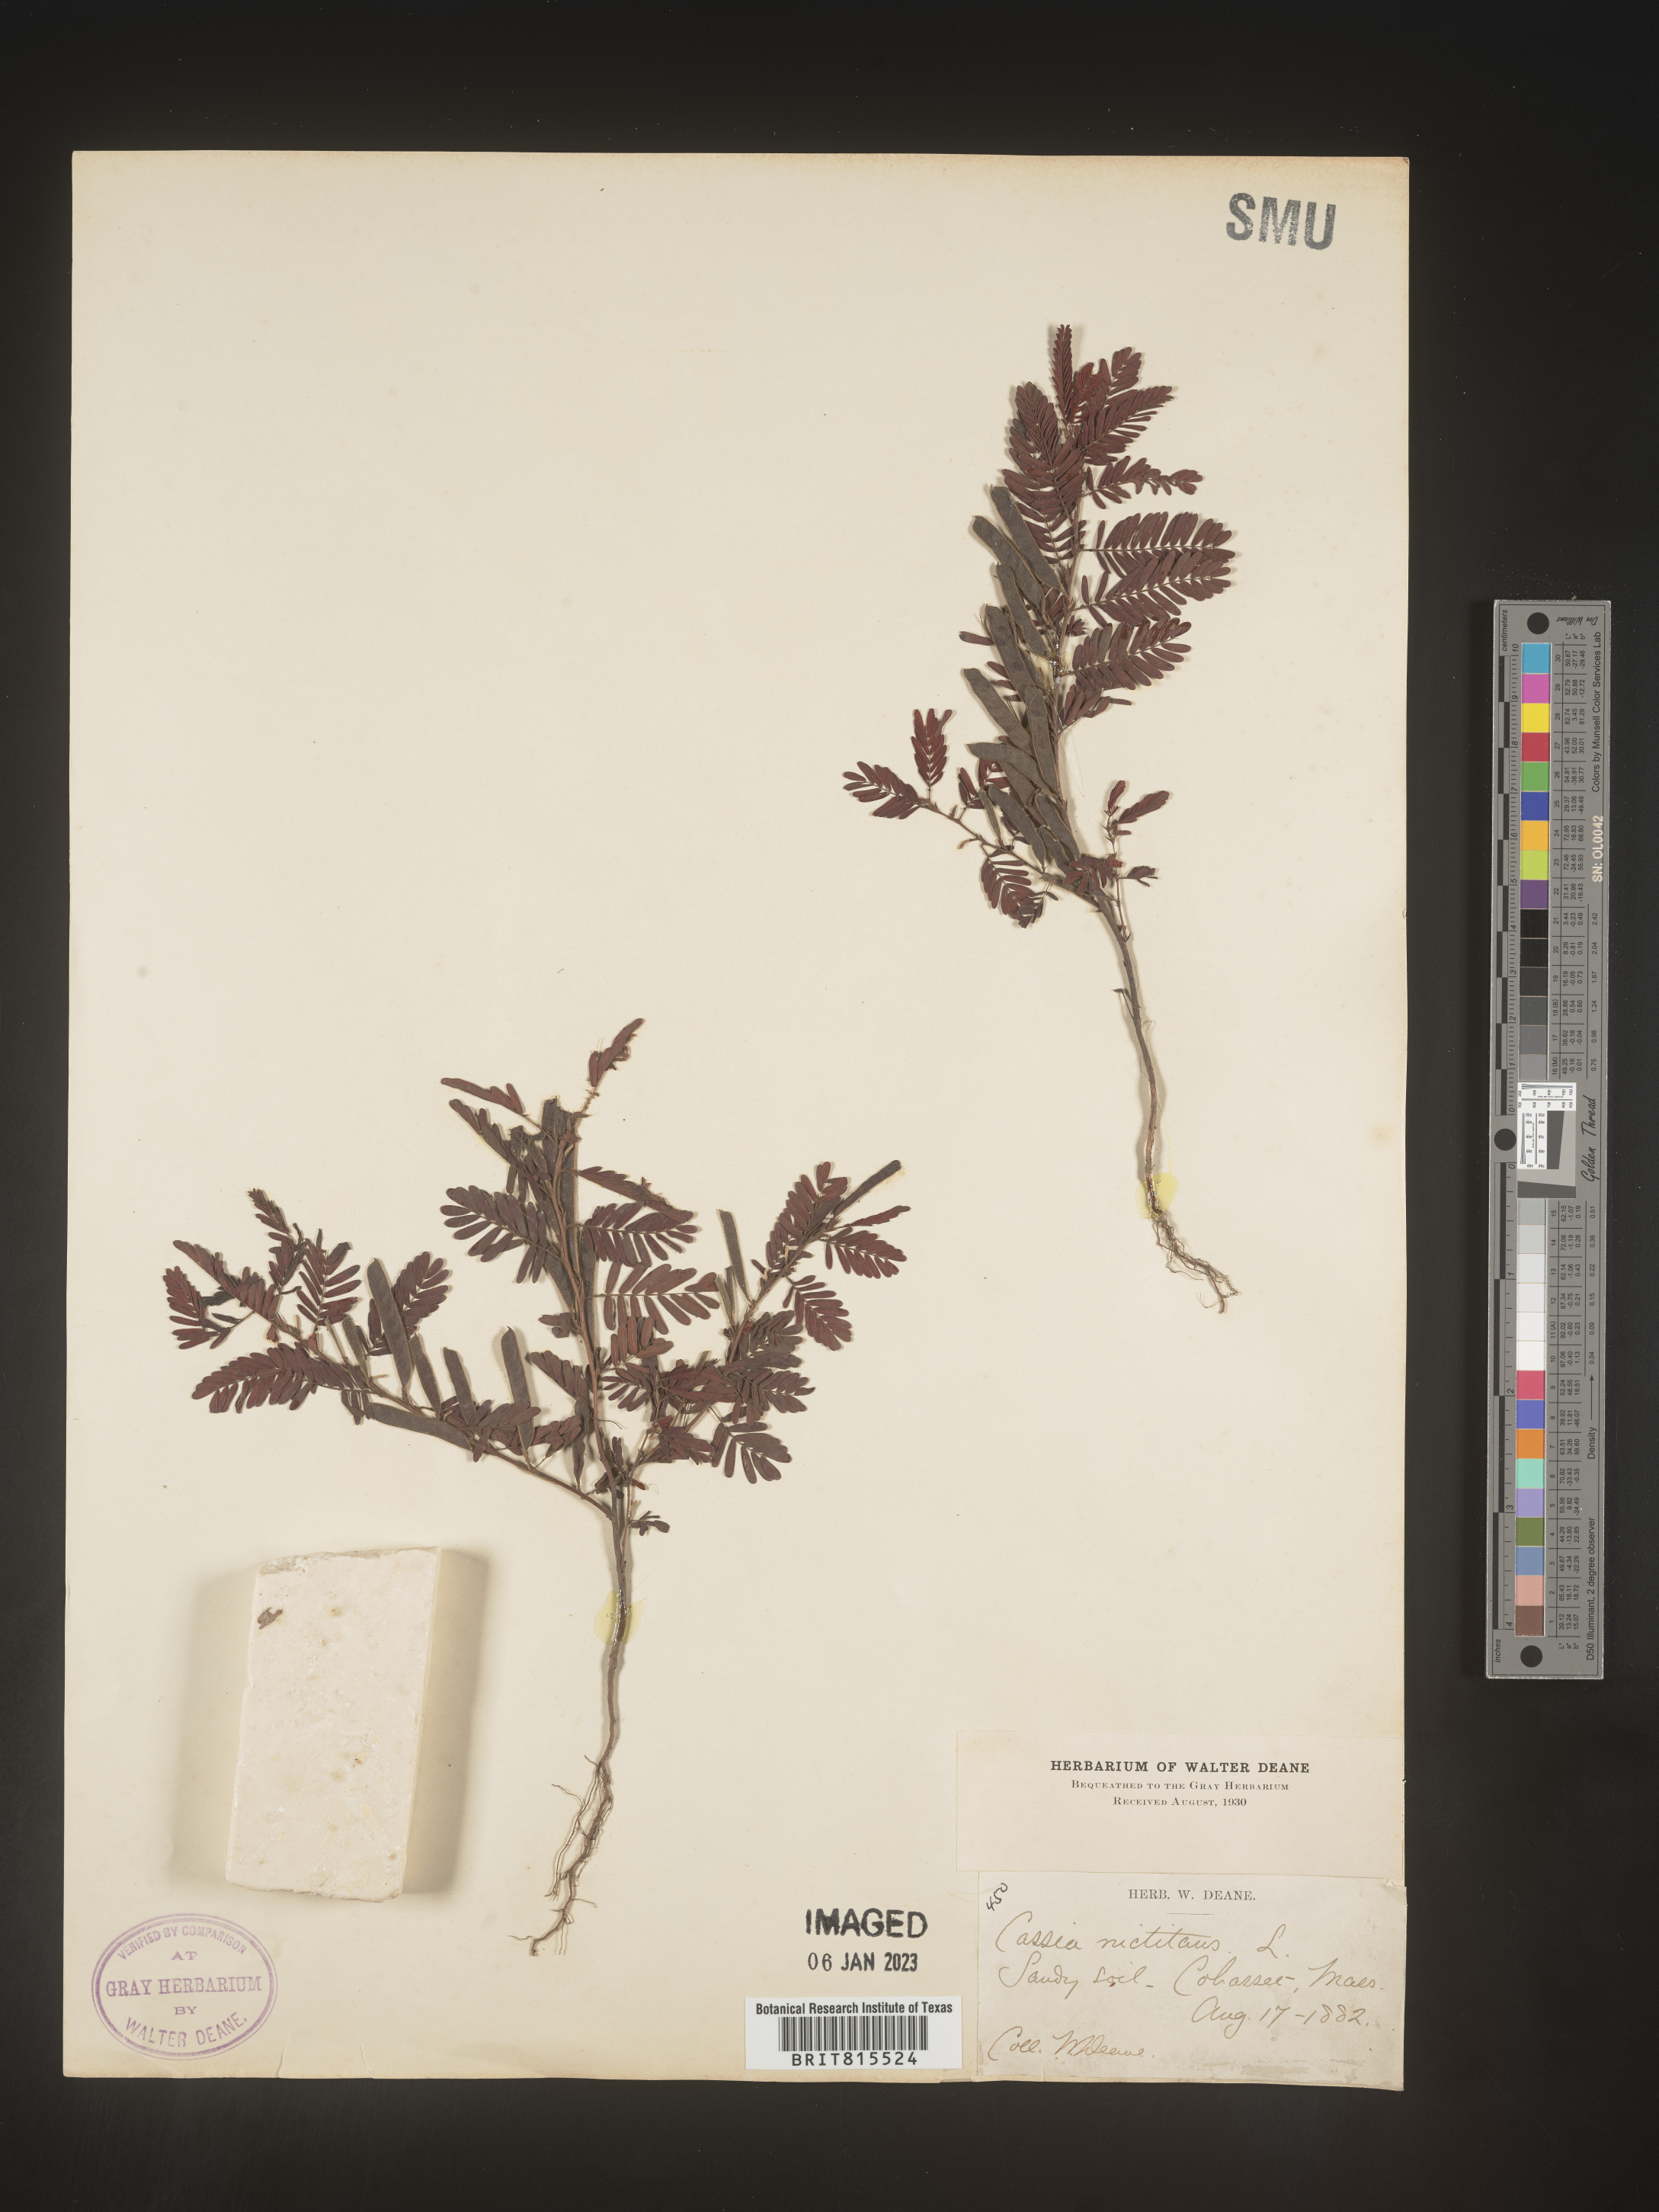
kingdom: Plantae
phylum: Tracheophyta
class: Magnoliopsida
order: Fabales
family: Fabaceae
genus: Chamaecrista
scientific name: Chamaecrista nictitans
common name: Sensitive cassia
